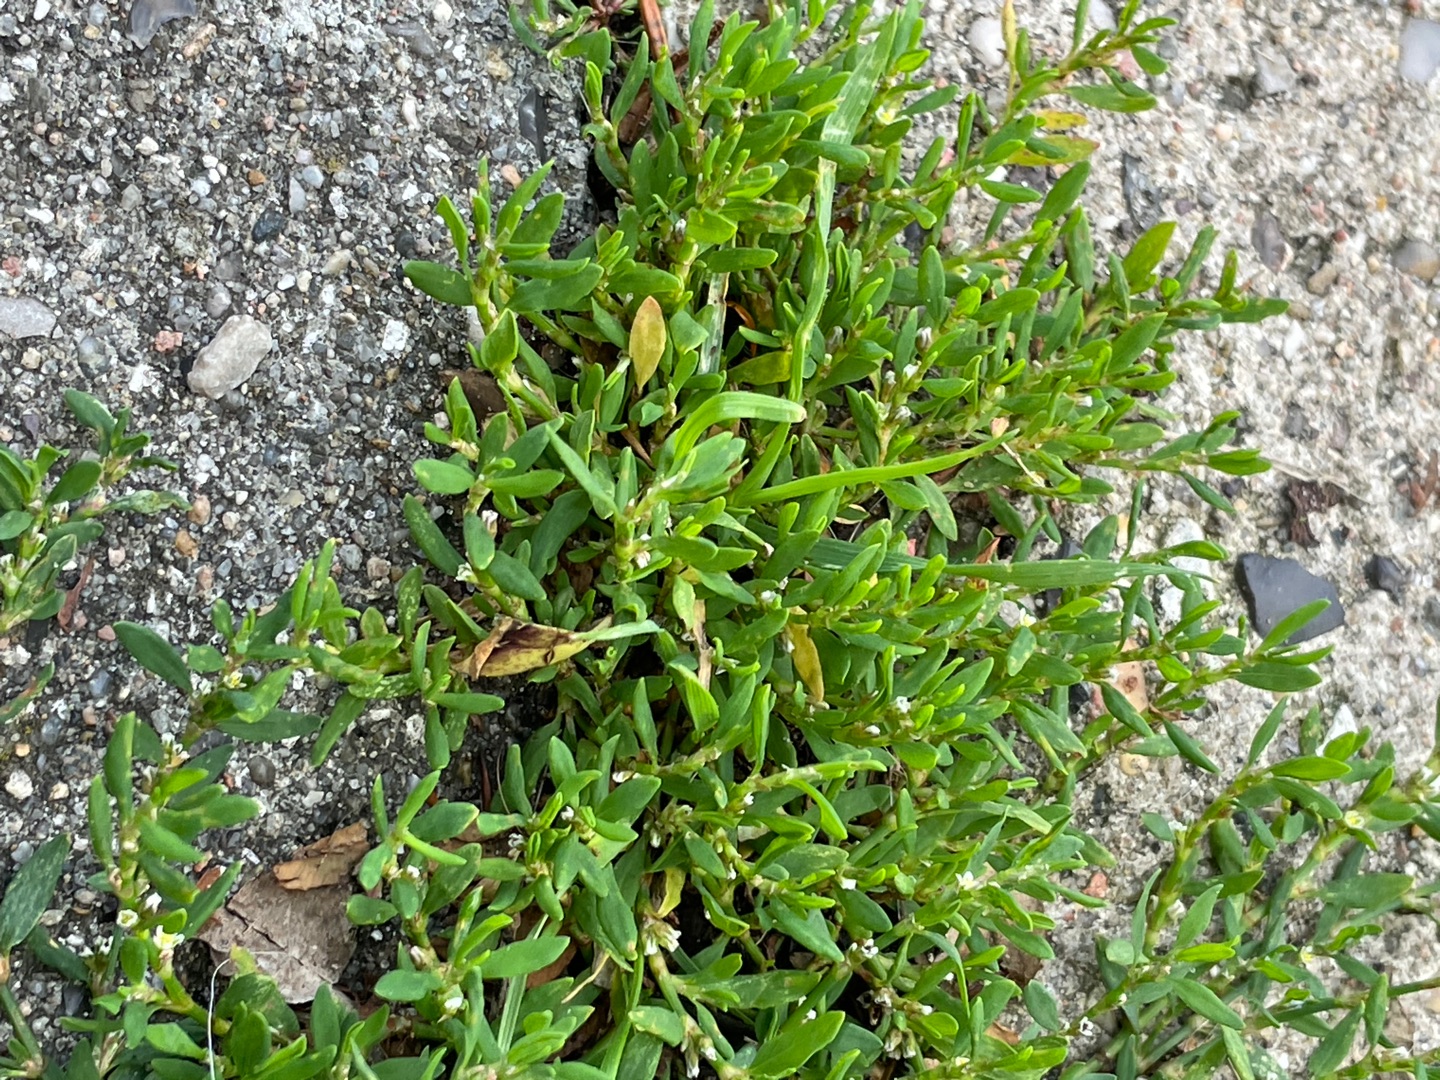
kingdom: Plantae
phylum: Tracheophyta
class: Magnoliopsida
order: Caryophyllales
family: Polygonaceae
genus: Polygonum
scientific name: Polygonum aviculare
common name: Vej-pileurt
